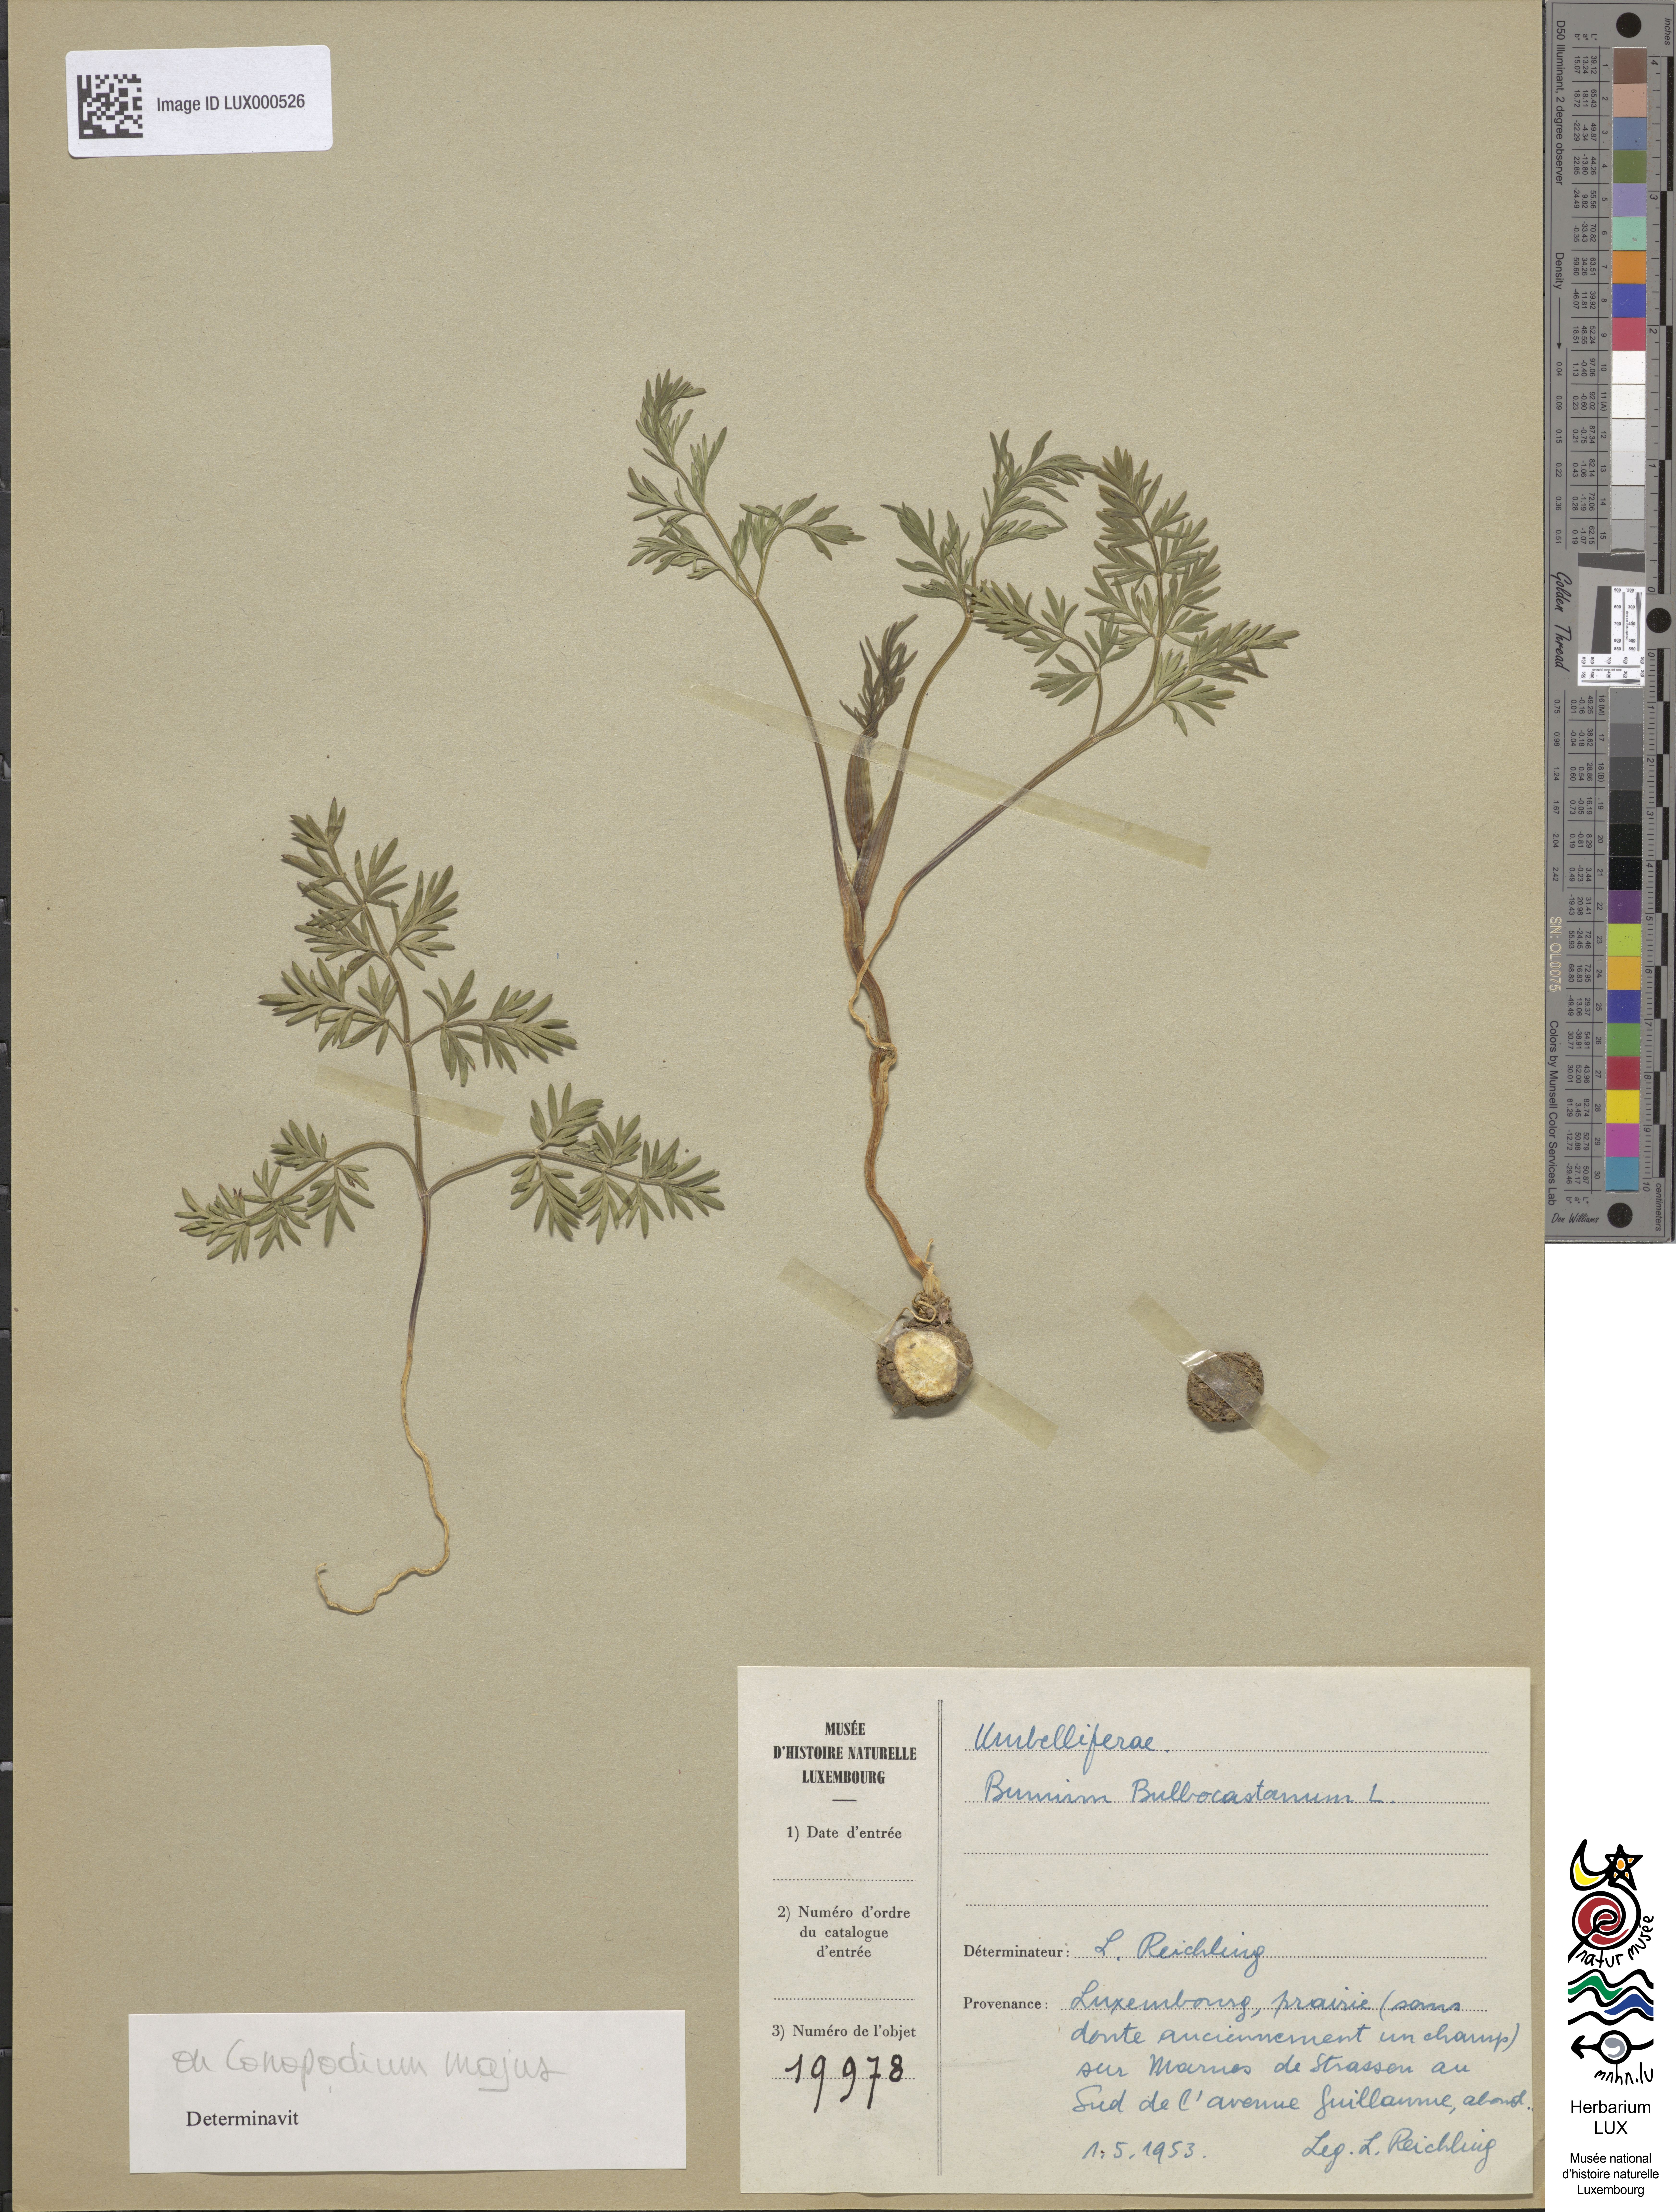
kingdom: Plantae
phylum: Tracheophyta
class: Magnoliopsida
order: Apiales
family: Apiaceae
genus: Bunium
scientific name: Bunium bulbocastanum
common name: Great pignut
